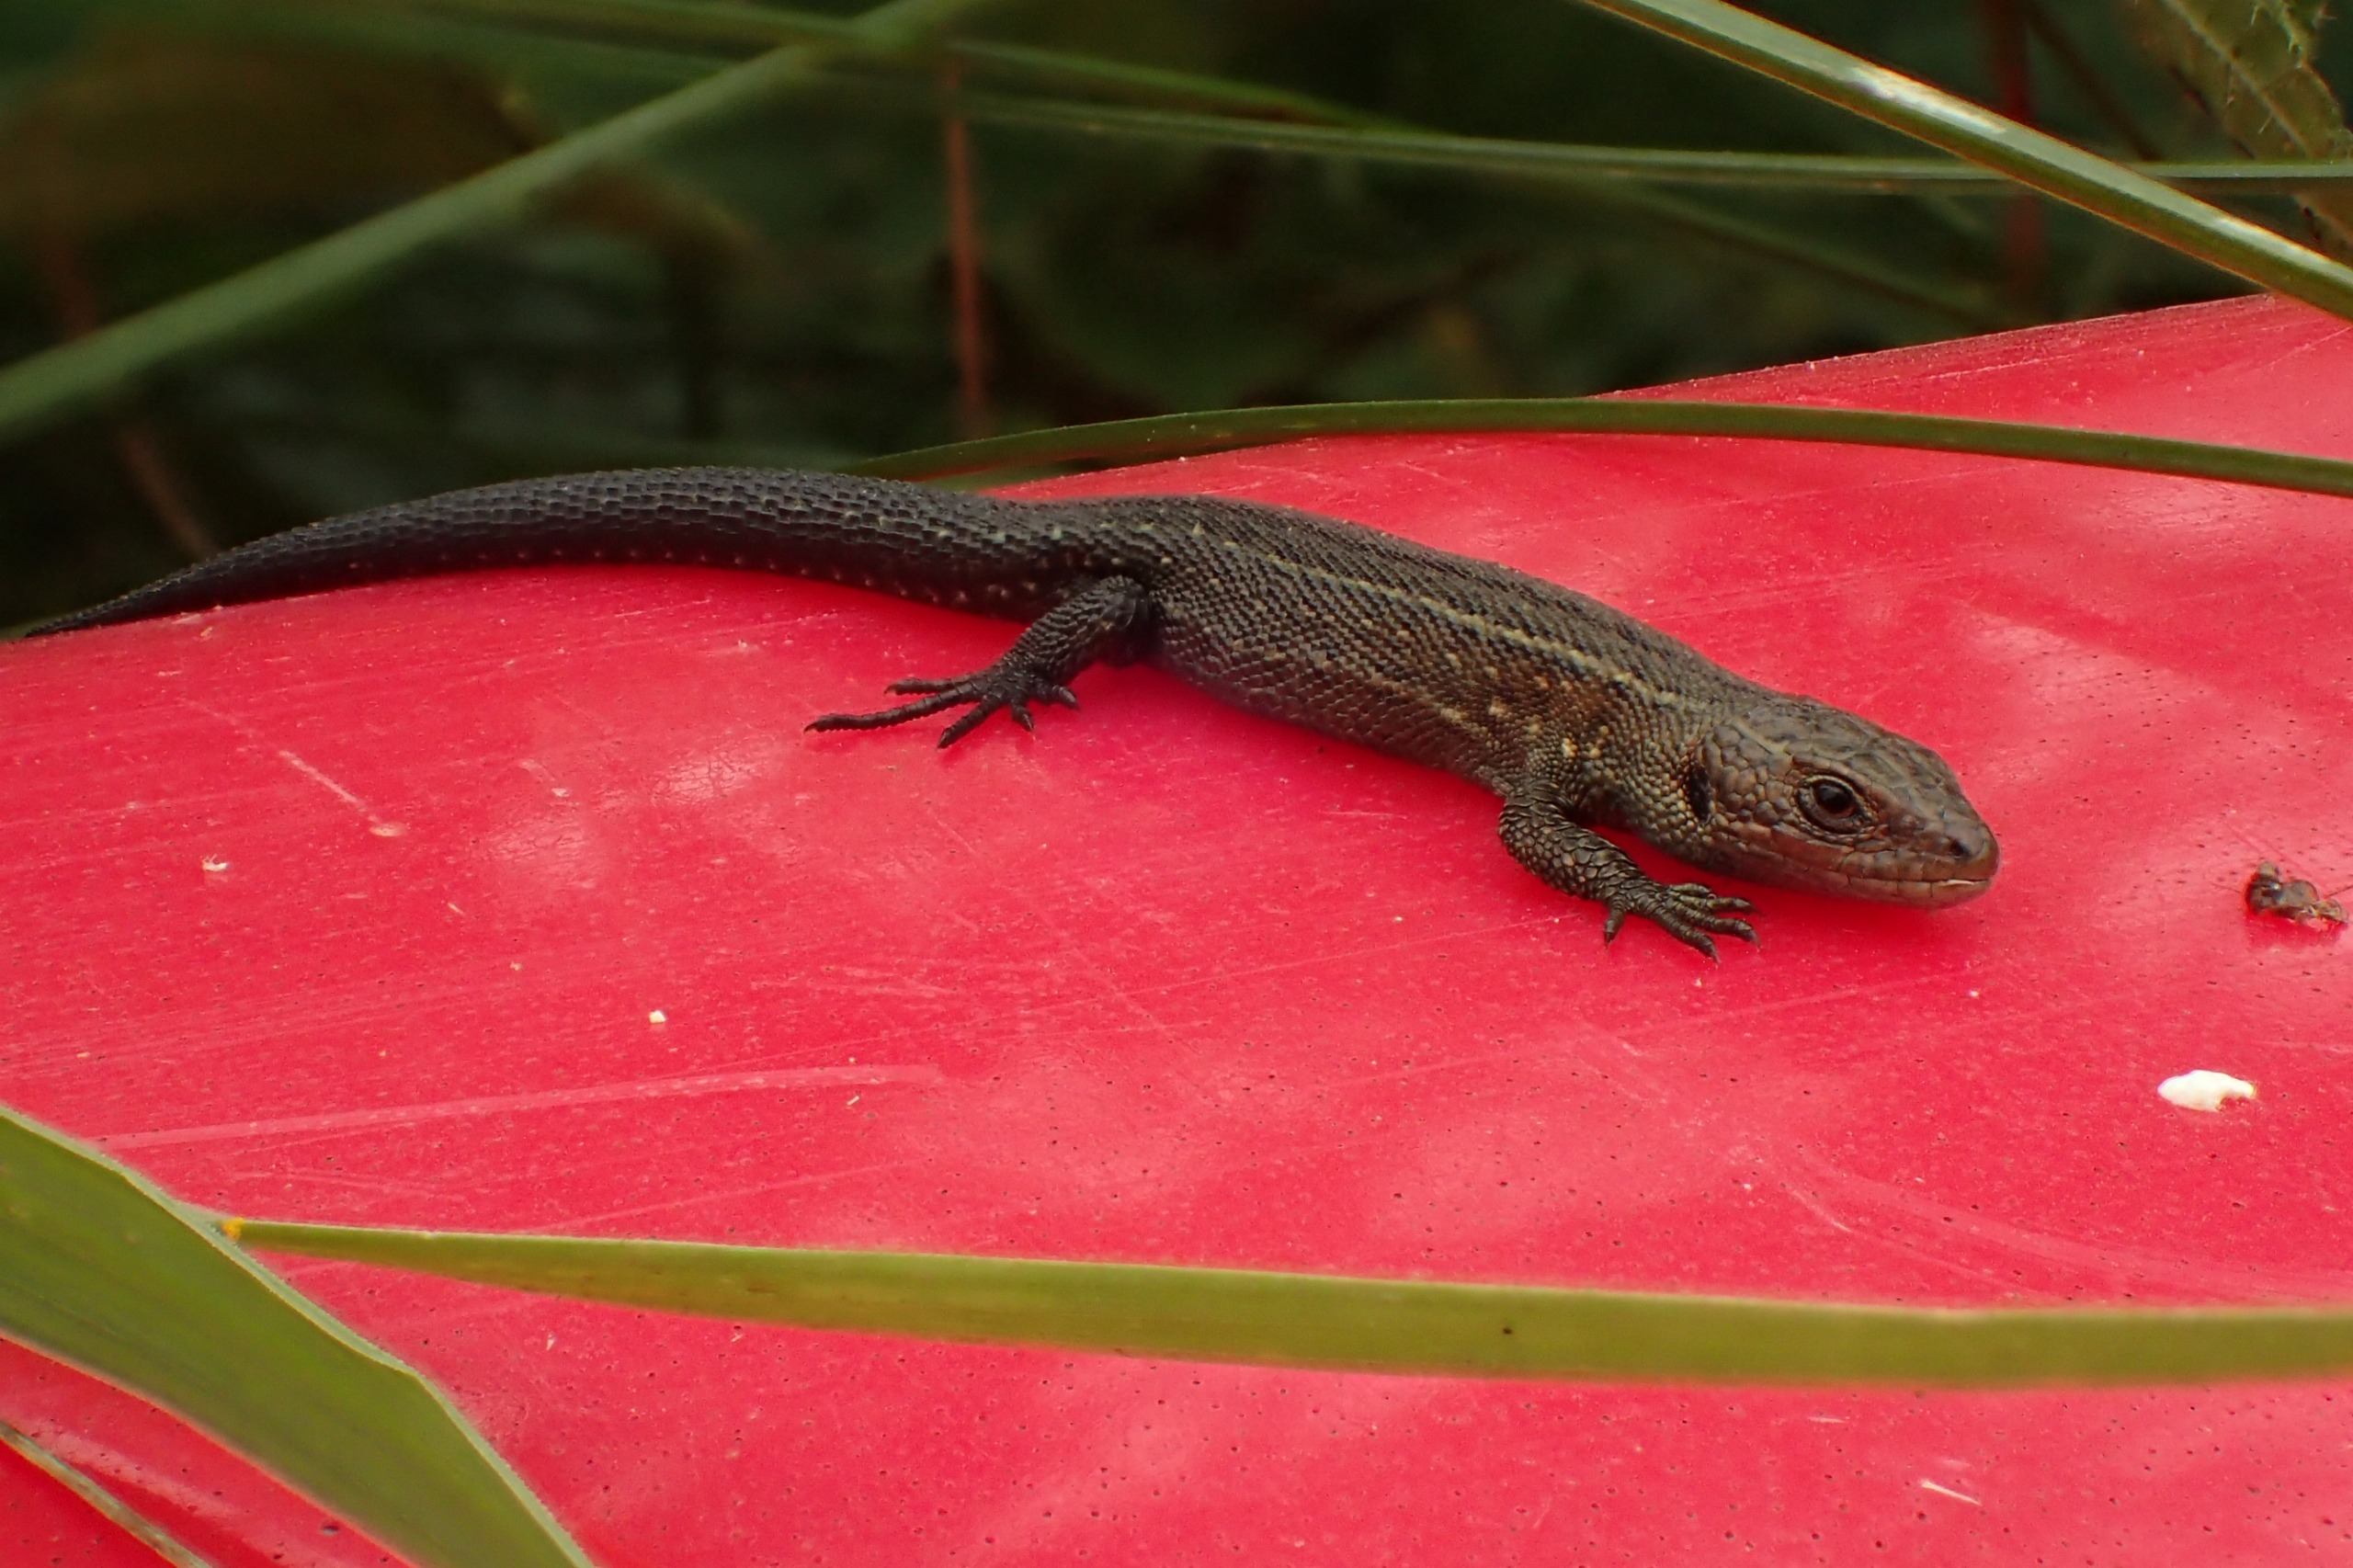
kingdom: Animalia
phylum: Chordata
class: Squamata
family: Lacertidae
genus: Zootoca
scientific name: Zootoca vivipara
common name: Skovfirben
